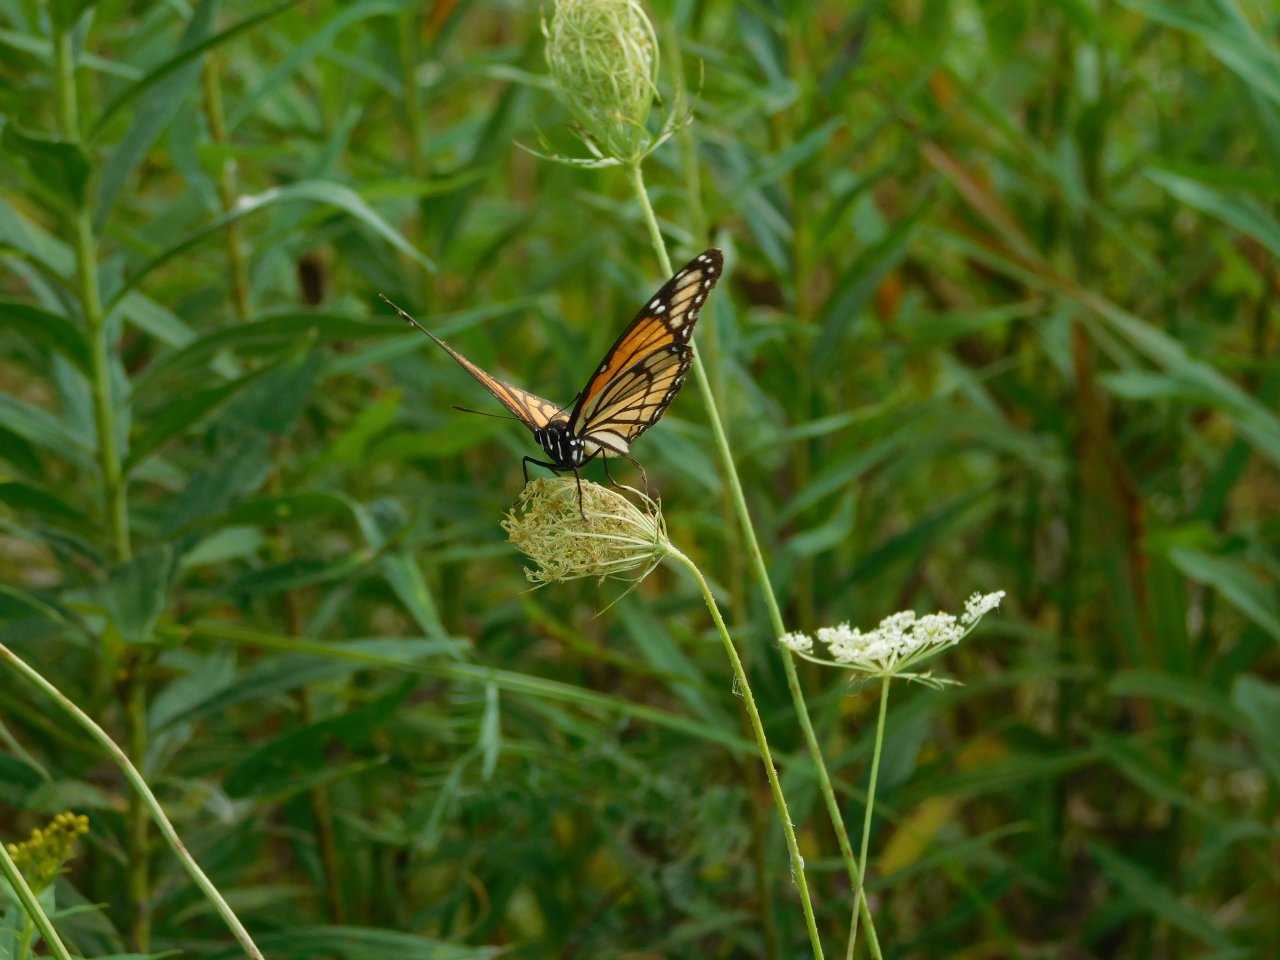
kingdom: Animalia
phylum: Arthropoda
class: Insecta
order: Lepidoptera
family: Nymphalidae
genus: Limenitis
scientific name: Limenitis archippus
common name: Viceroy
